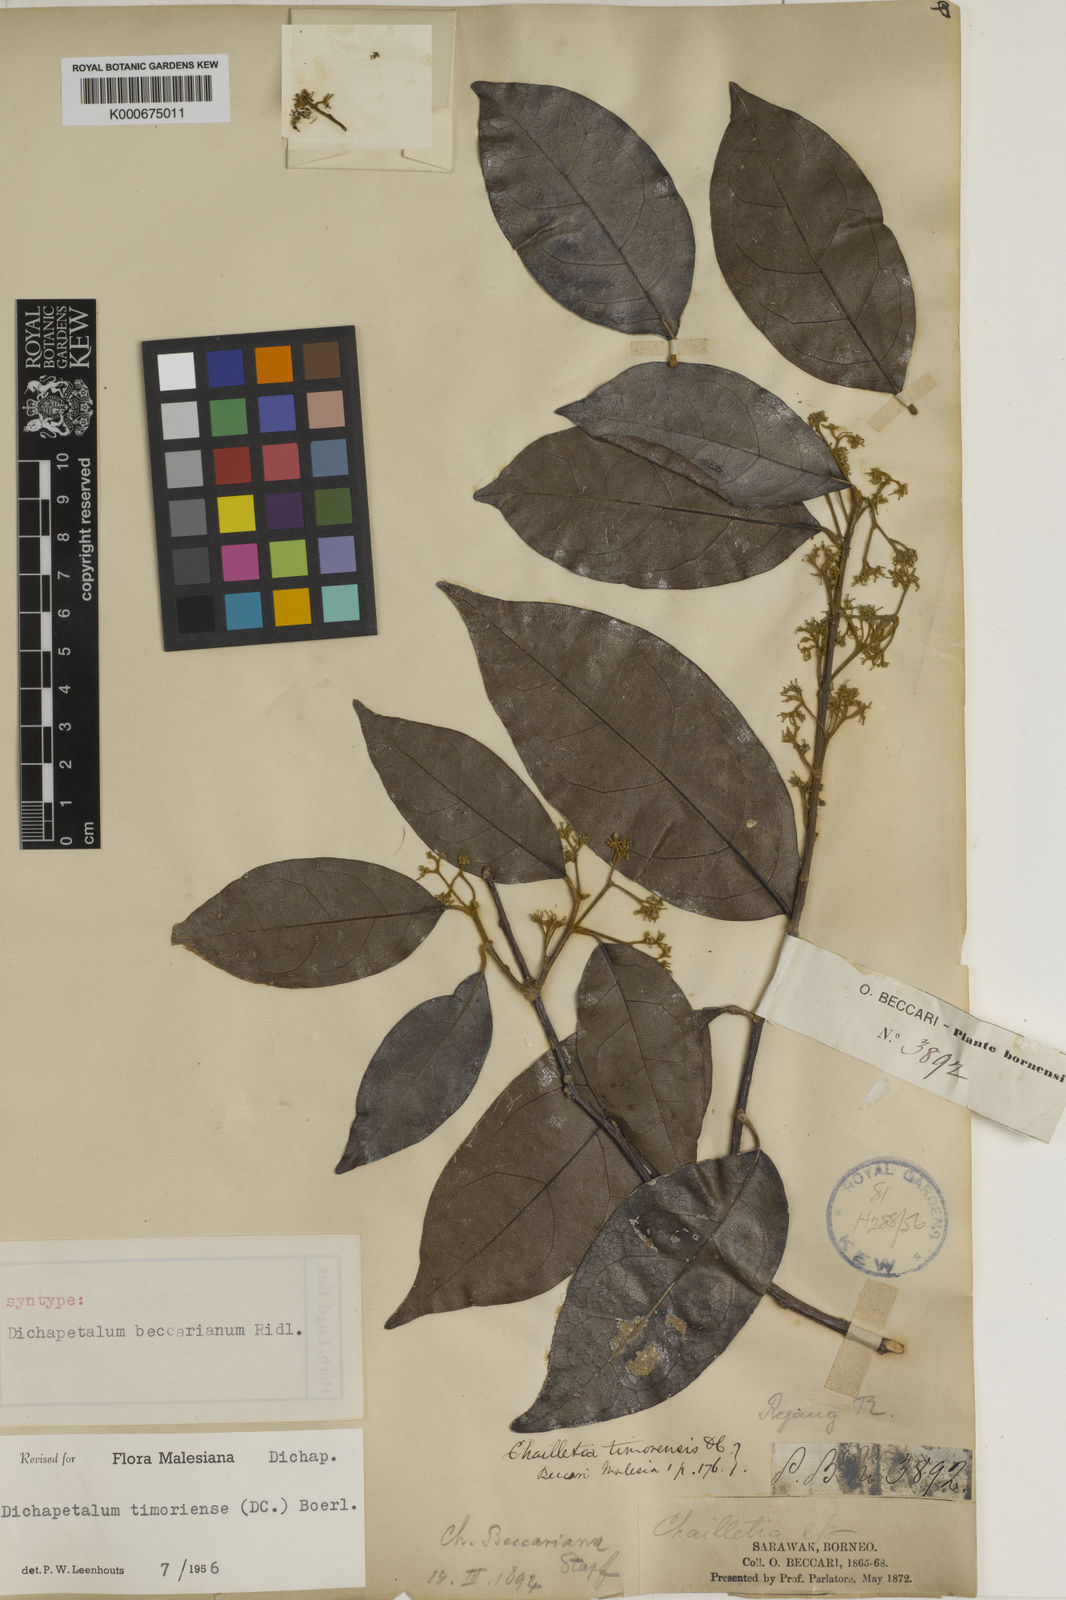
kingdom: Plantae
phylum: Tracheophyta
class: Magnoliopsida
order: Malpighiales
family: Dichapetalaceae
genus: Dichapetalum
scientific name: Dichapetalum timoriense
